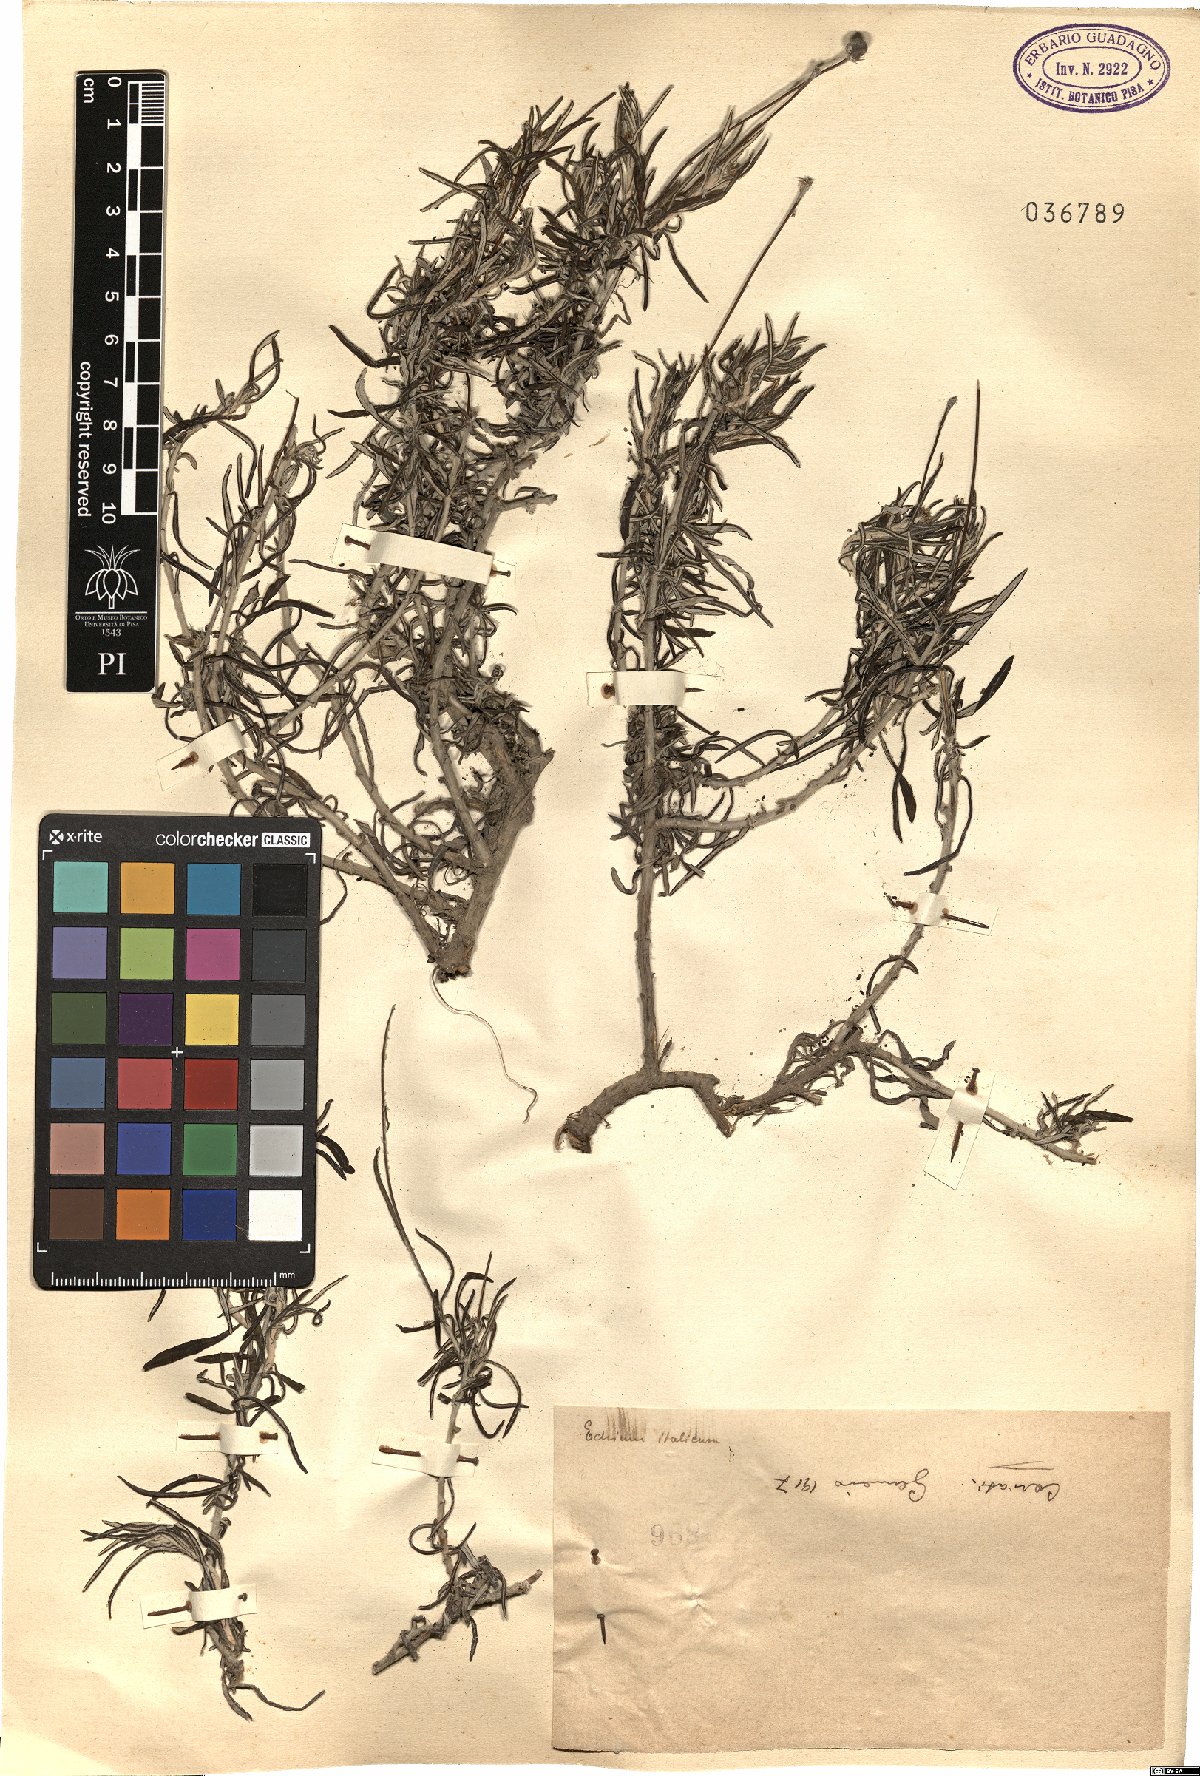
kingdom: Plantae
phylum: Tracheophyta
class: Magnoliopsida
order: Asterales
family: Asteraceae
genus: Phagnalon
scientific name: Phagnalon
